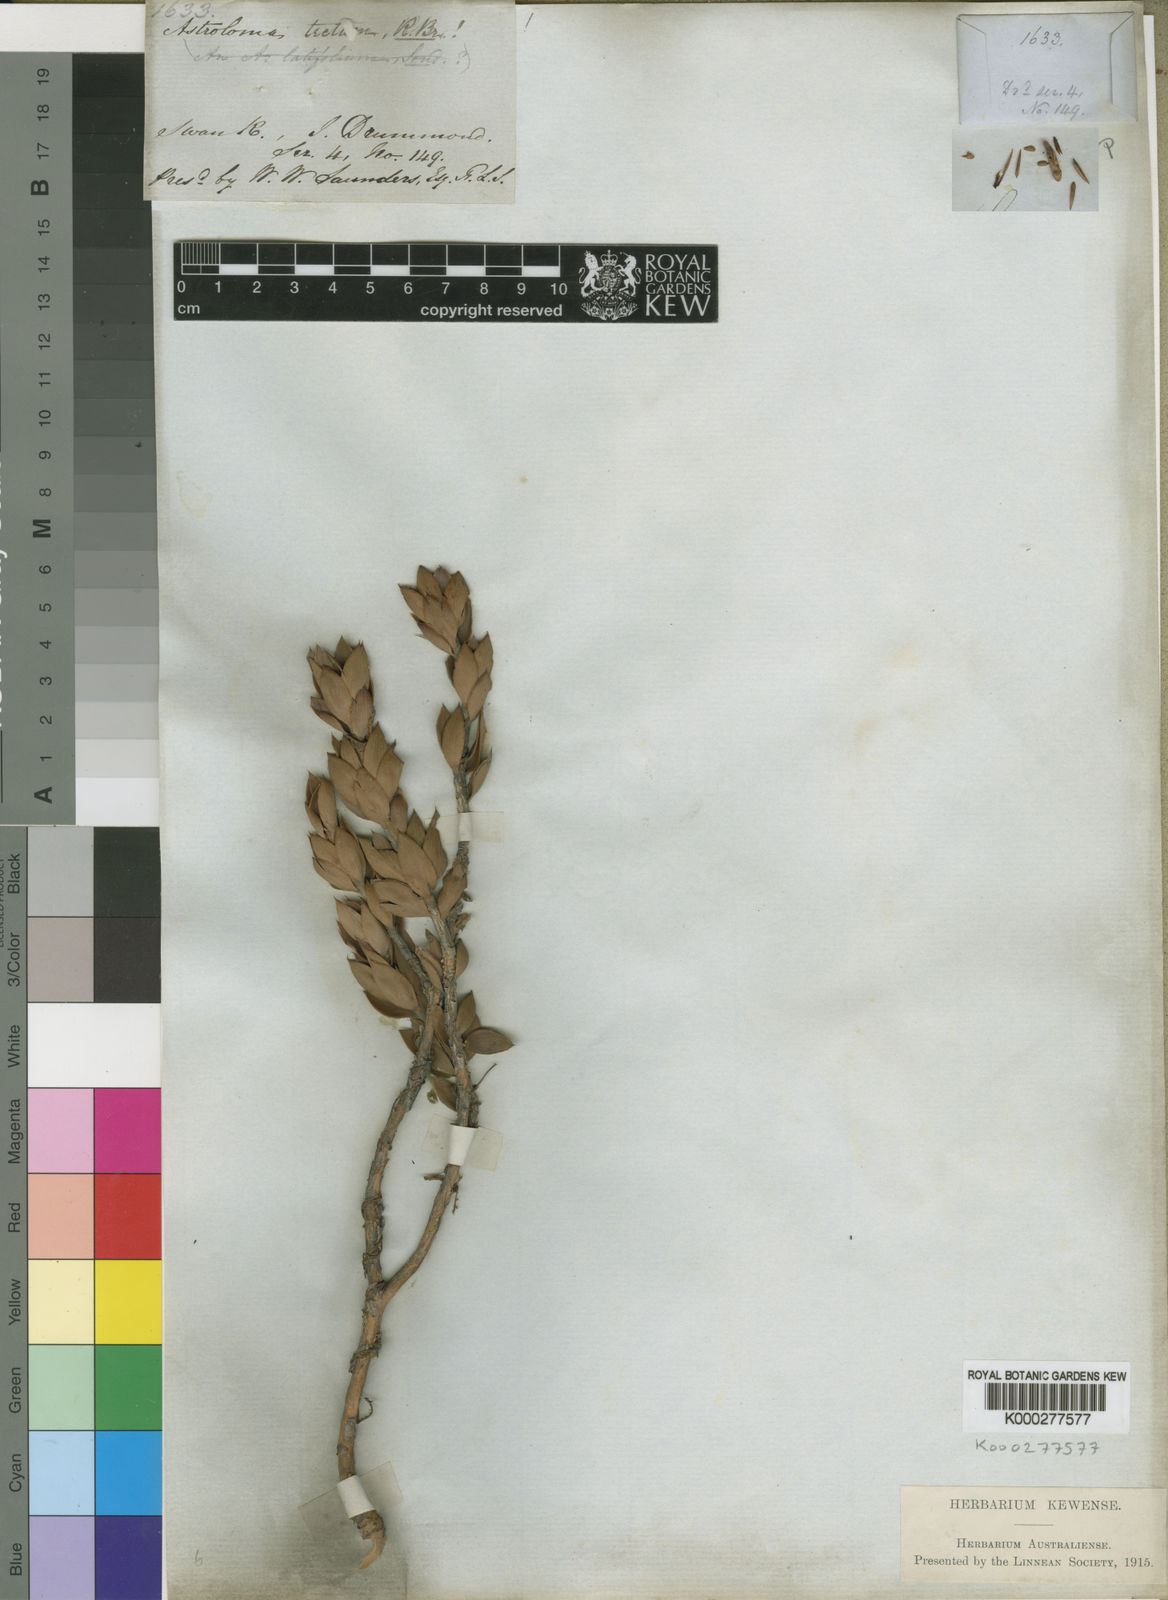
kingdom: Plantae
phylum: Tracheophyta
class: Magnoliopsida
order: Ericales
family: Ericaceae
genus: Styphelia
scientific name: Styphelia tecta
